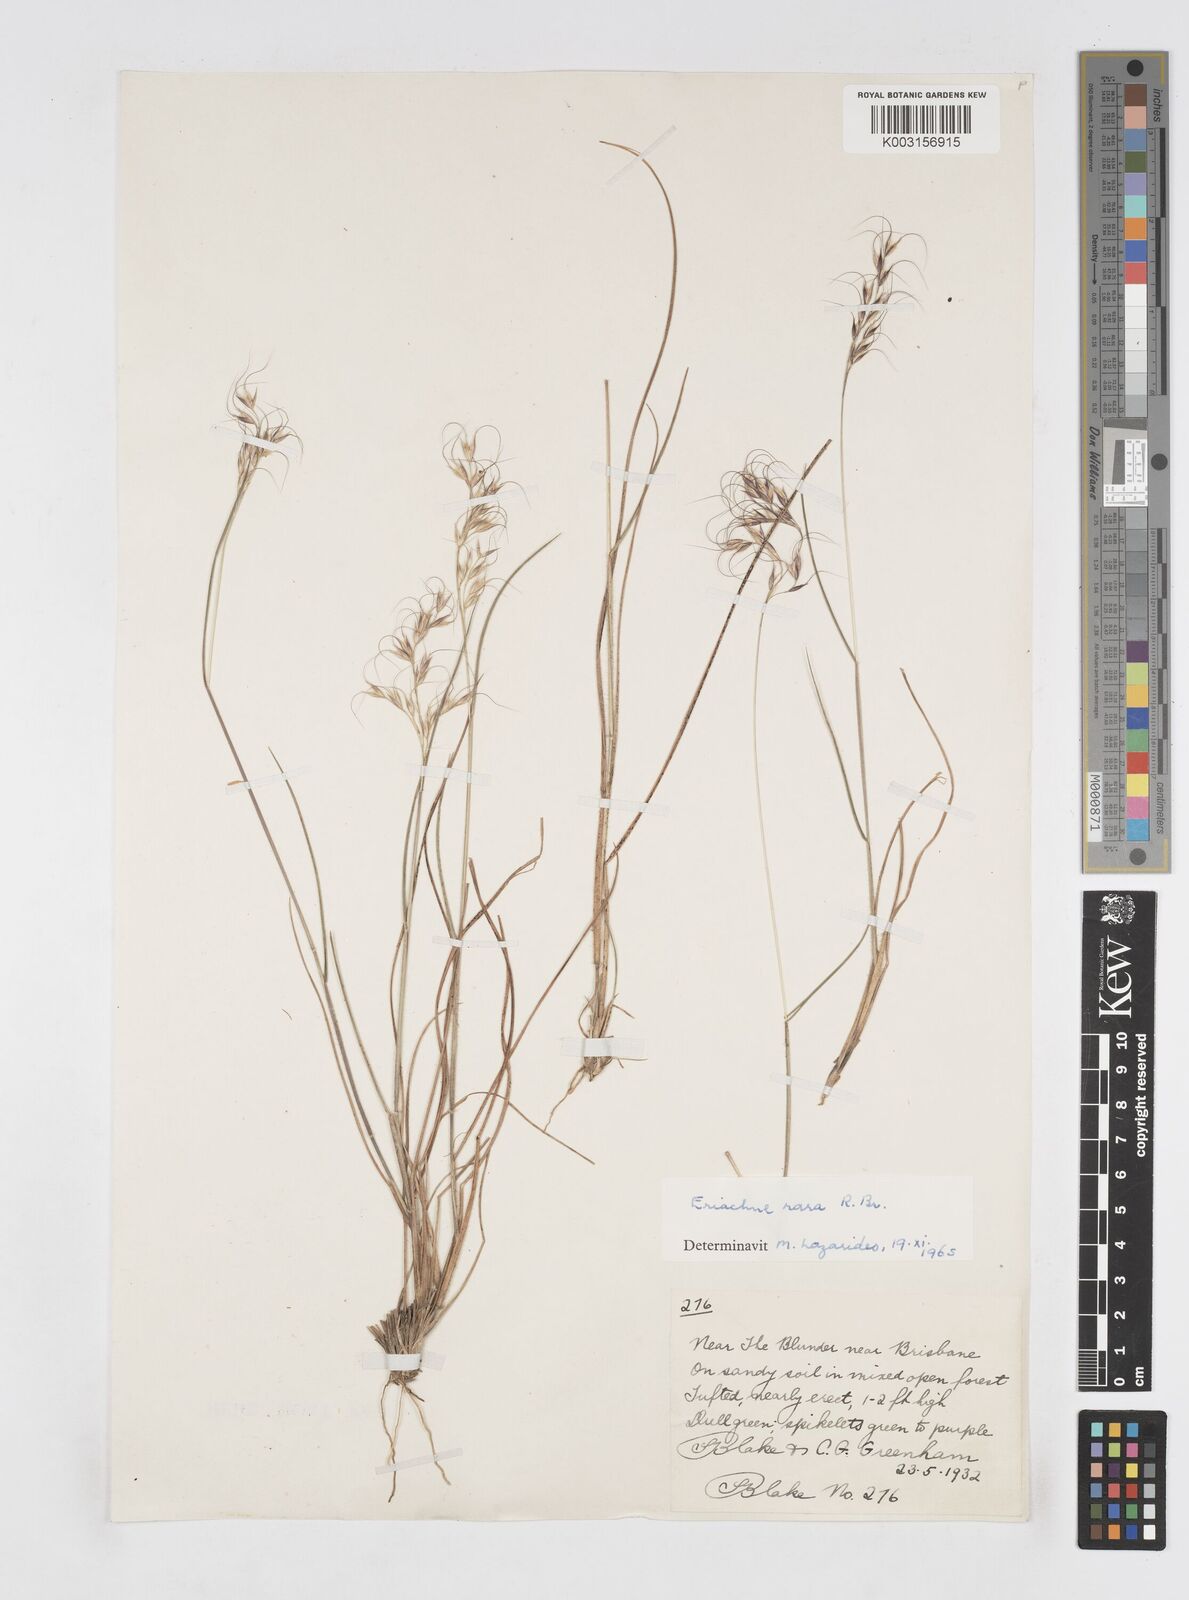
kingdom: Plantae
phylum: Tracheophyta
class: Liliopsida
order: Poales
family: Poaceae
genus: Eriachne
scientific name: Eriachne rara
